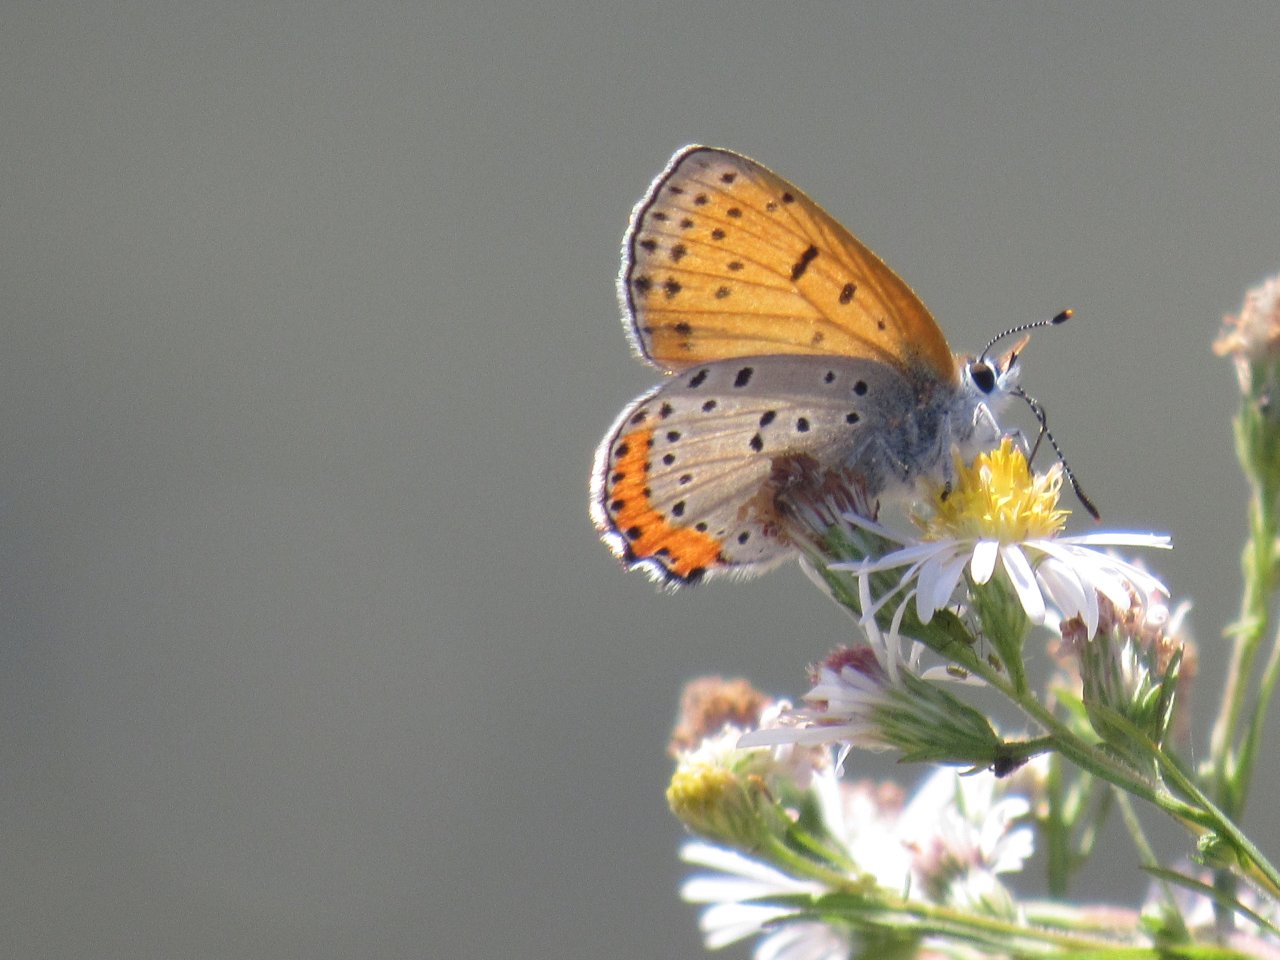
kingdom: Animalia
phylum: Arthropoda
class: Insecta
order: Lepidoptera
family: Sesiidae
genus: Sesia
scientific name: Sesia Lycaena hyllus
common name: Bronze Copper
